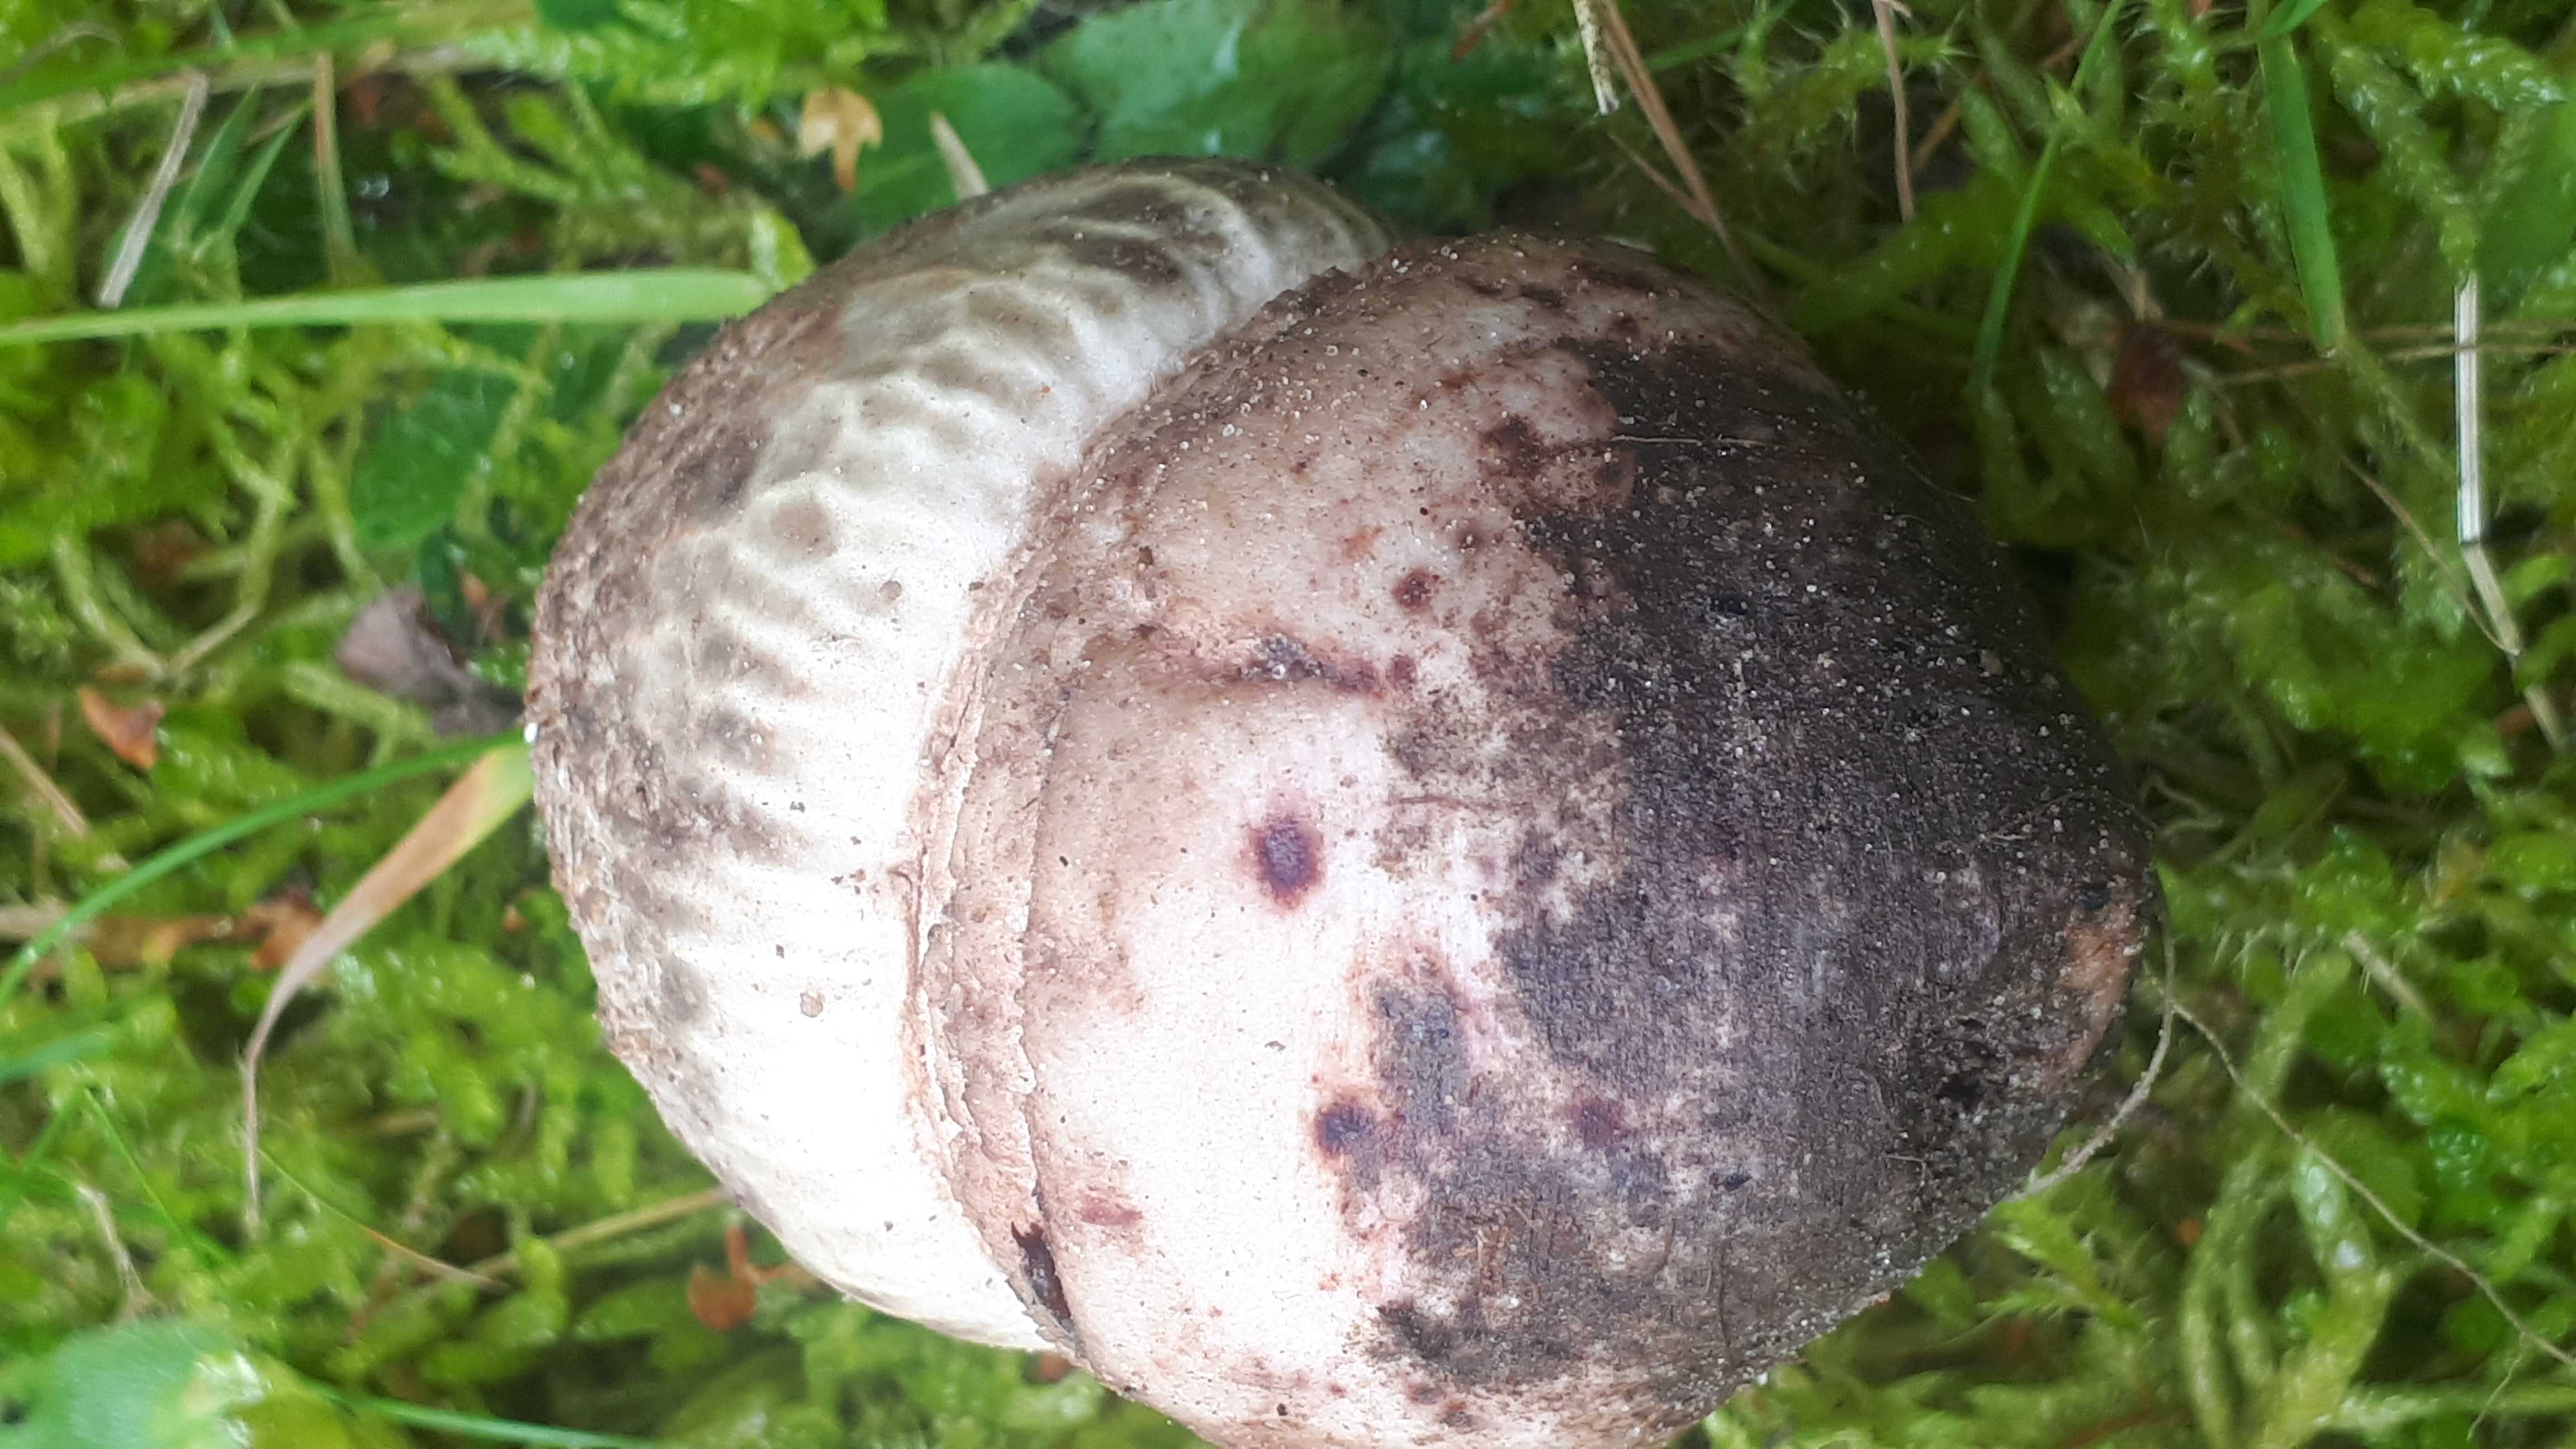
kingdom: Fungi
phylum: Basidiomycota
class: Agaricomycetes
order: Agaricales
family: Amanitaceae
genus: Amanita
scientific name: Amanita rubescens
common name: rødmende fluesvamp
